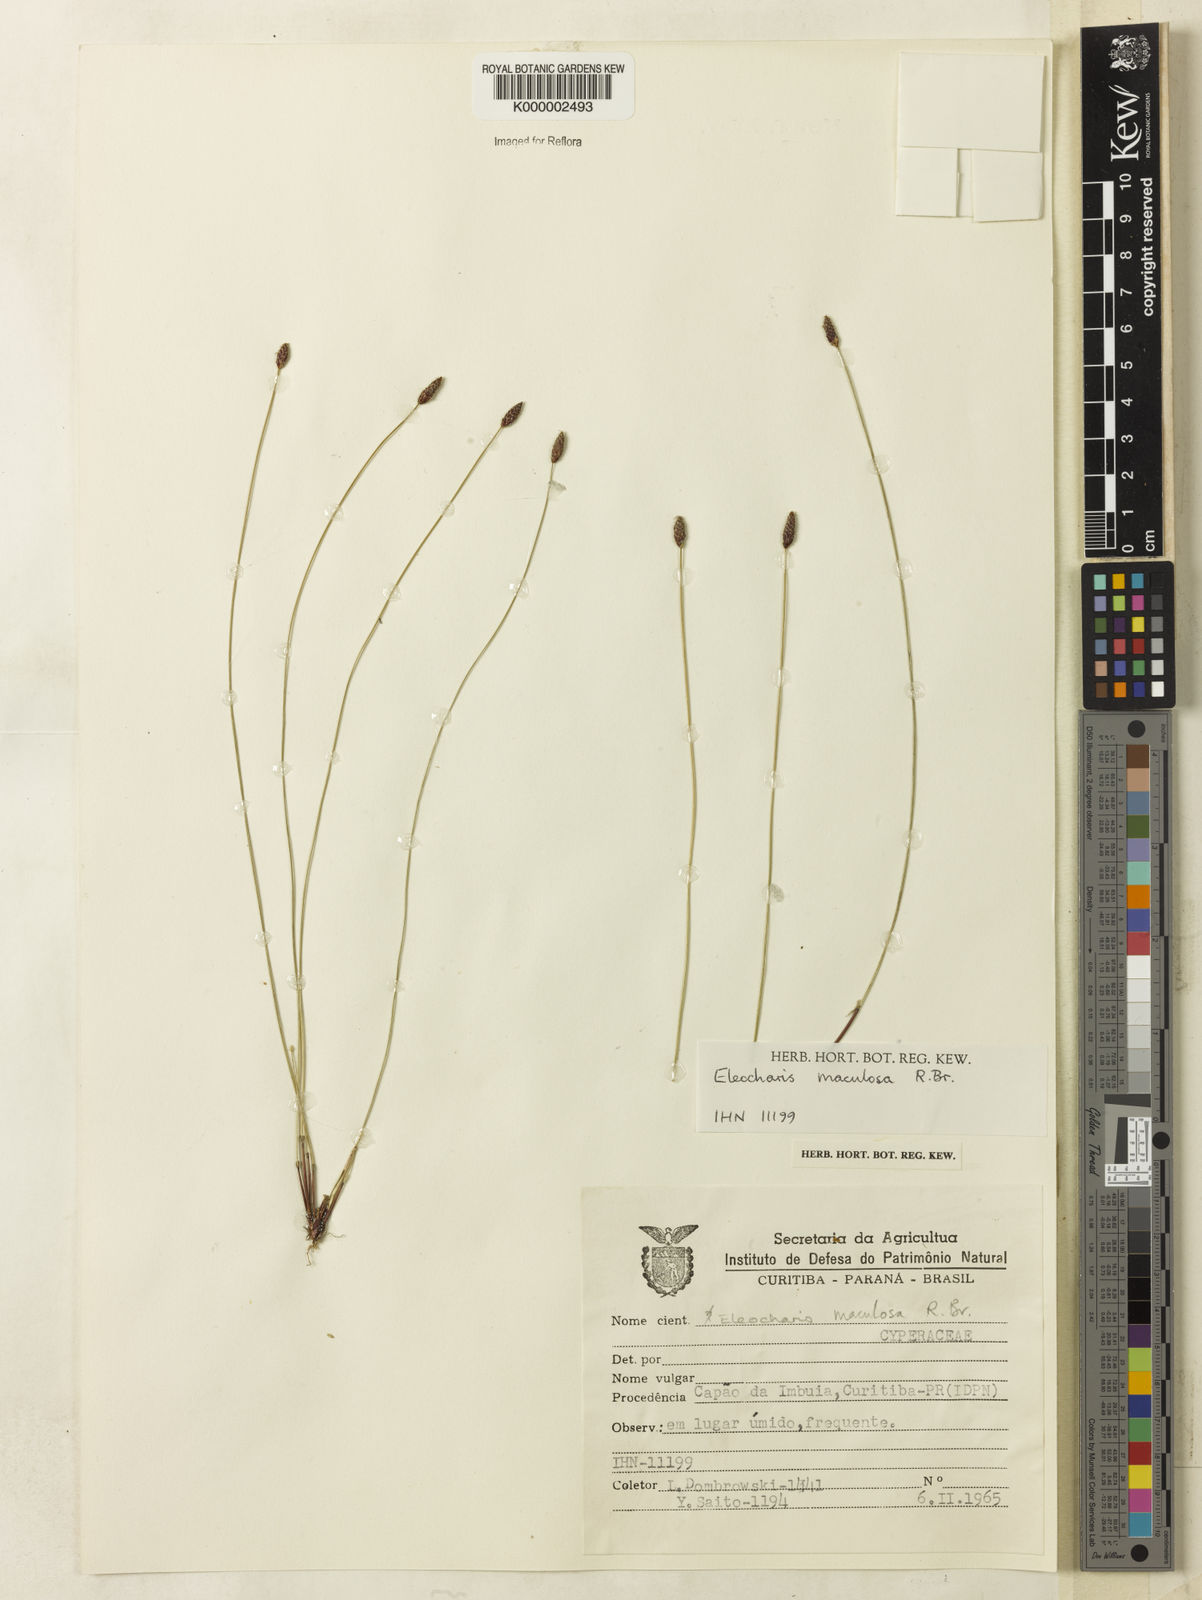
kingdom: Plantae
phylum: Tracheophyta
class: Liliopsida
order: Poales
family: Cyperaceae
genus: Eleocharis
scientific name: Eleocharis maculosa
